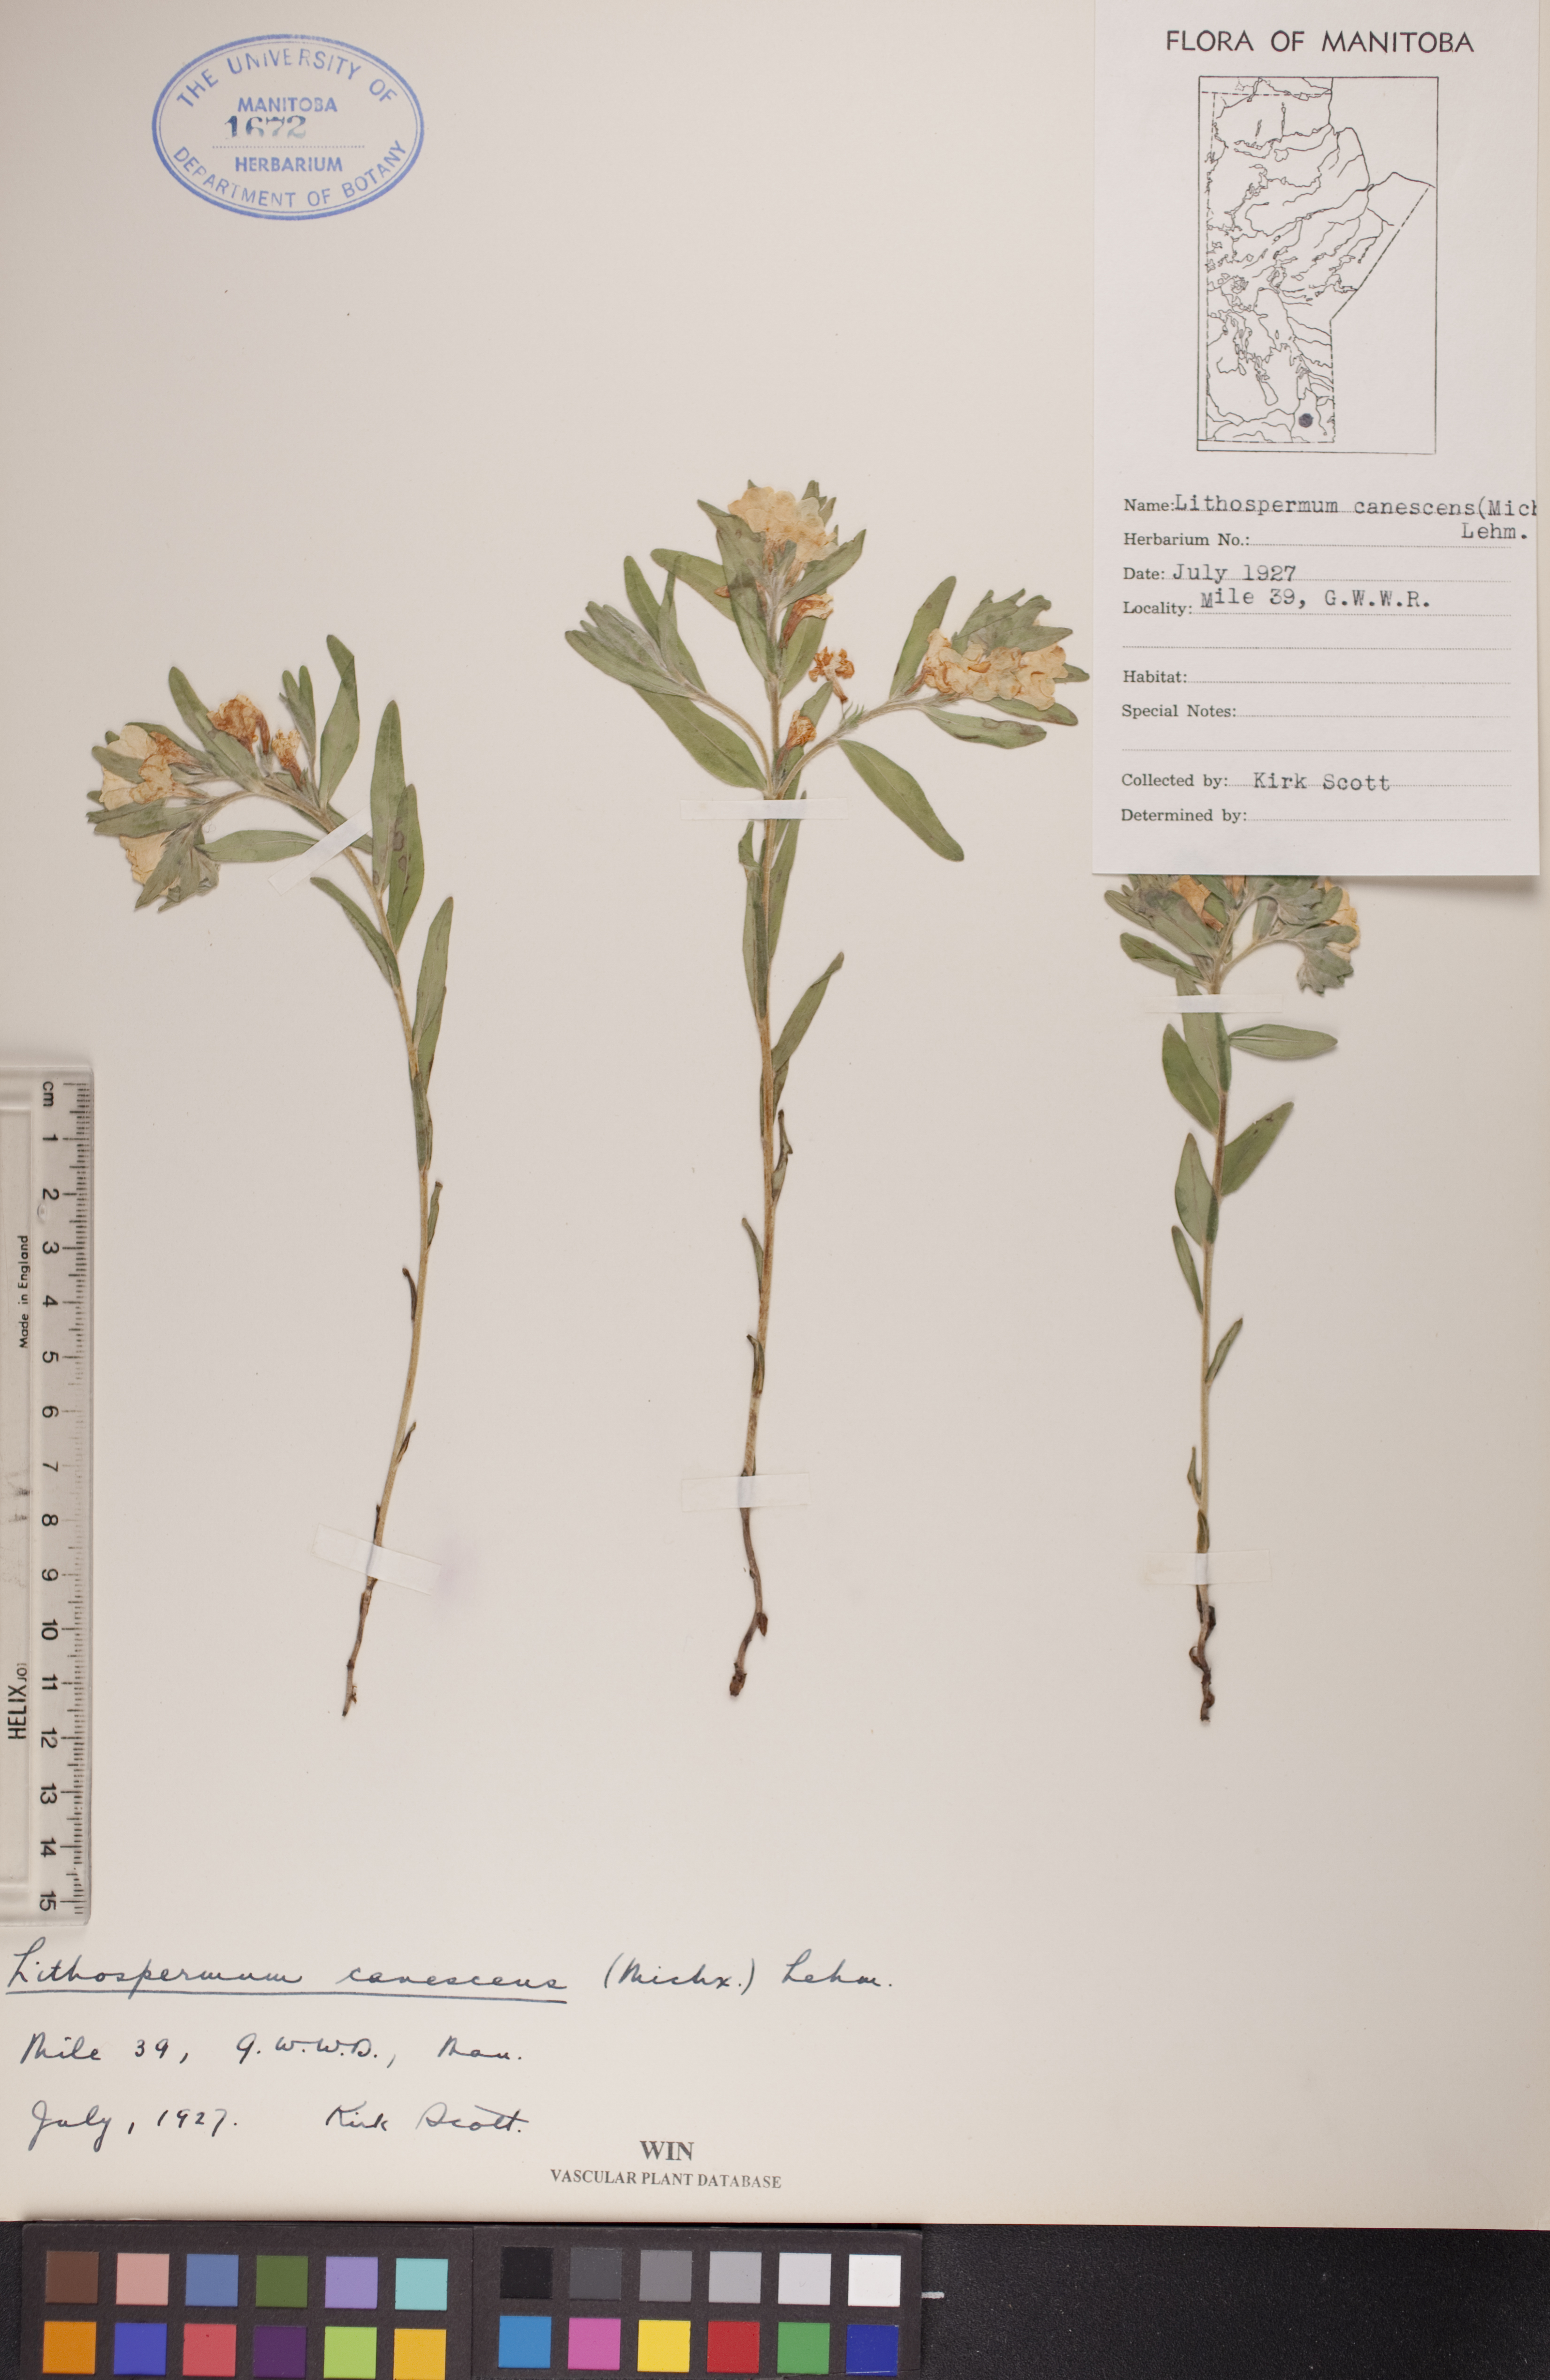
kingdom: Plantae
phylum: Tracheophyta
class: Magnoliopsida
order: Boraginales
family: Boraginaceae
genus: Lithospermum
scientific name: Lithospermum canescens
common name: Hoary puccoon
